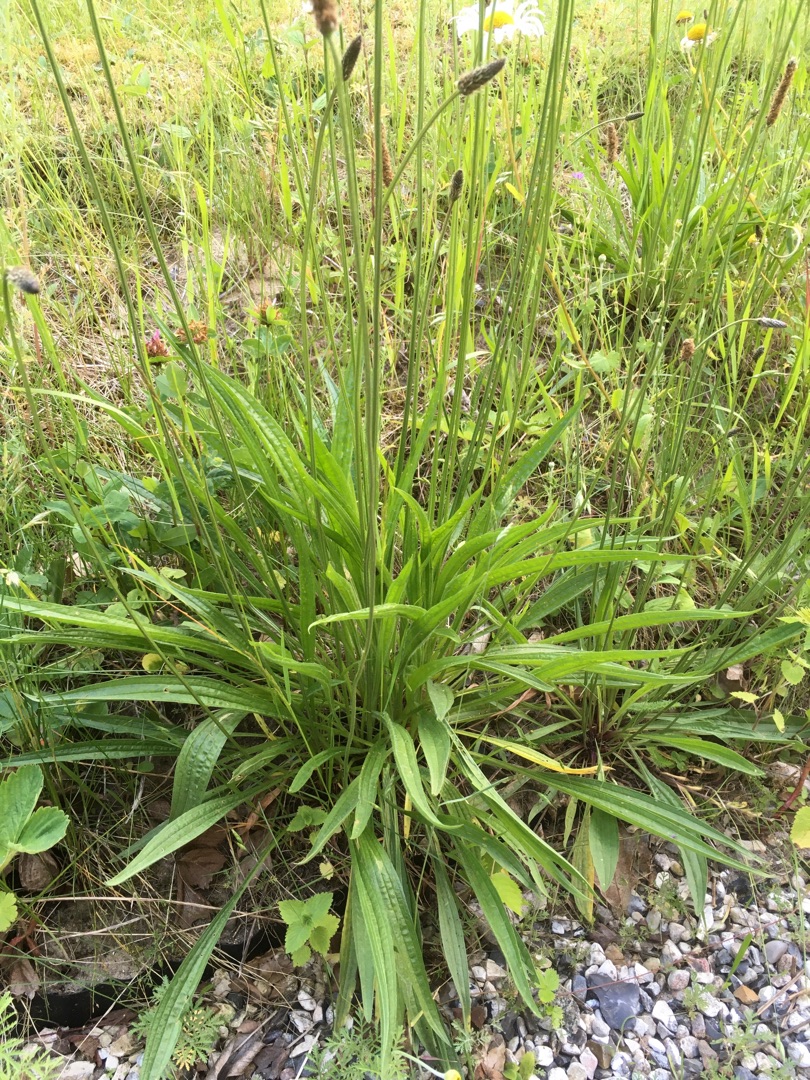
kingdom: Plantae
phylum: Tracheophyta
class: Magnoliopsida
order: Lamiales
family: Plantaginaceae
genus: Plantago
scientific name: Plantago lanceolata
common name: Lancet-vejbred
